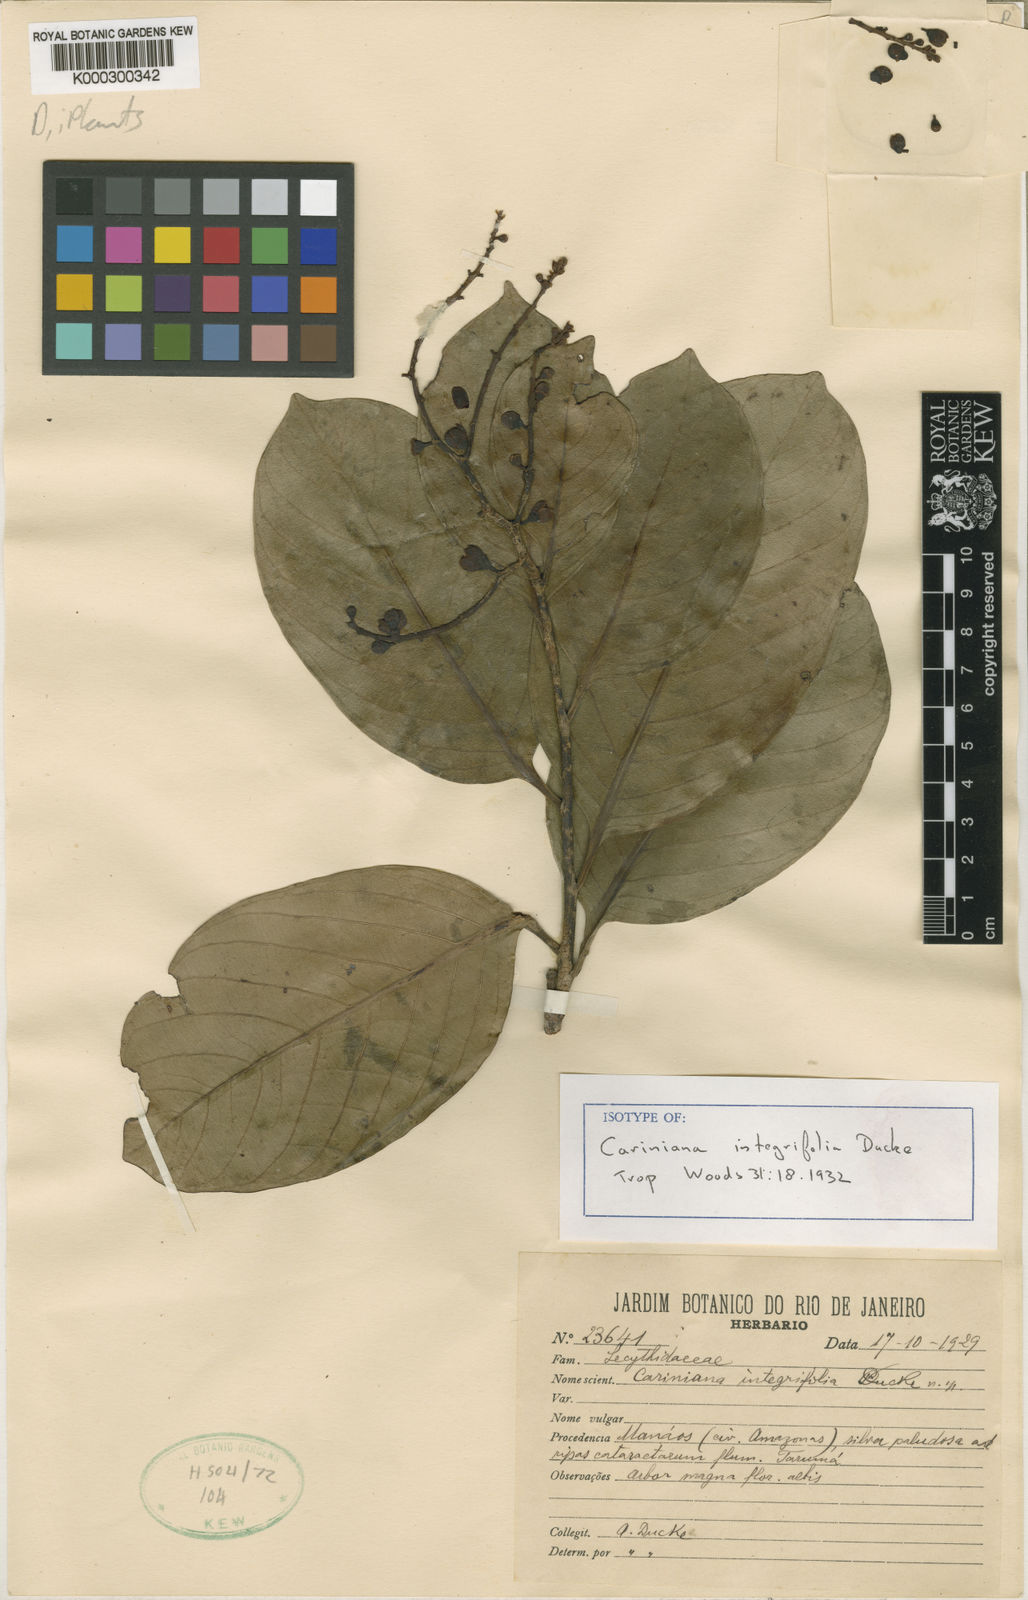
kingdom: Plantae
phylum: Tracheophyta
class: Magnoliopsida
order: Ericales
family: Lecythidaceae
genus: Allantoma
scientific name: Allantoma integrifolia
